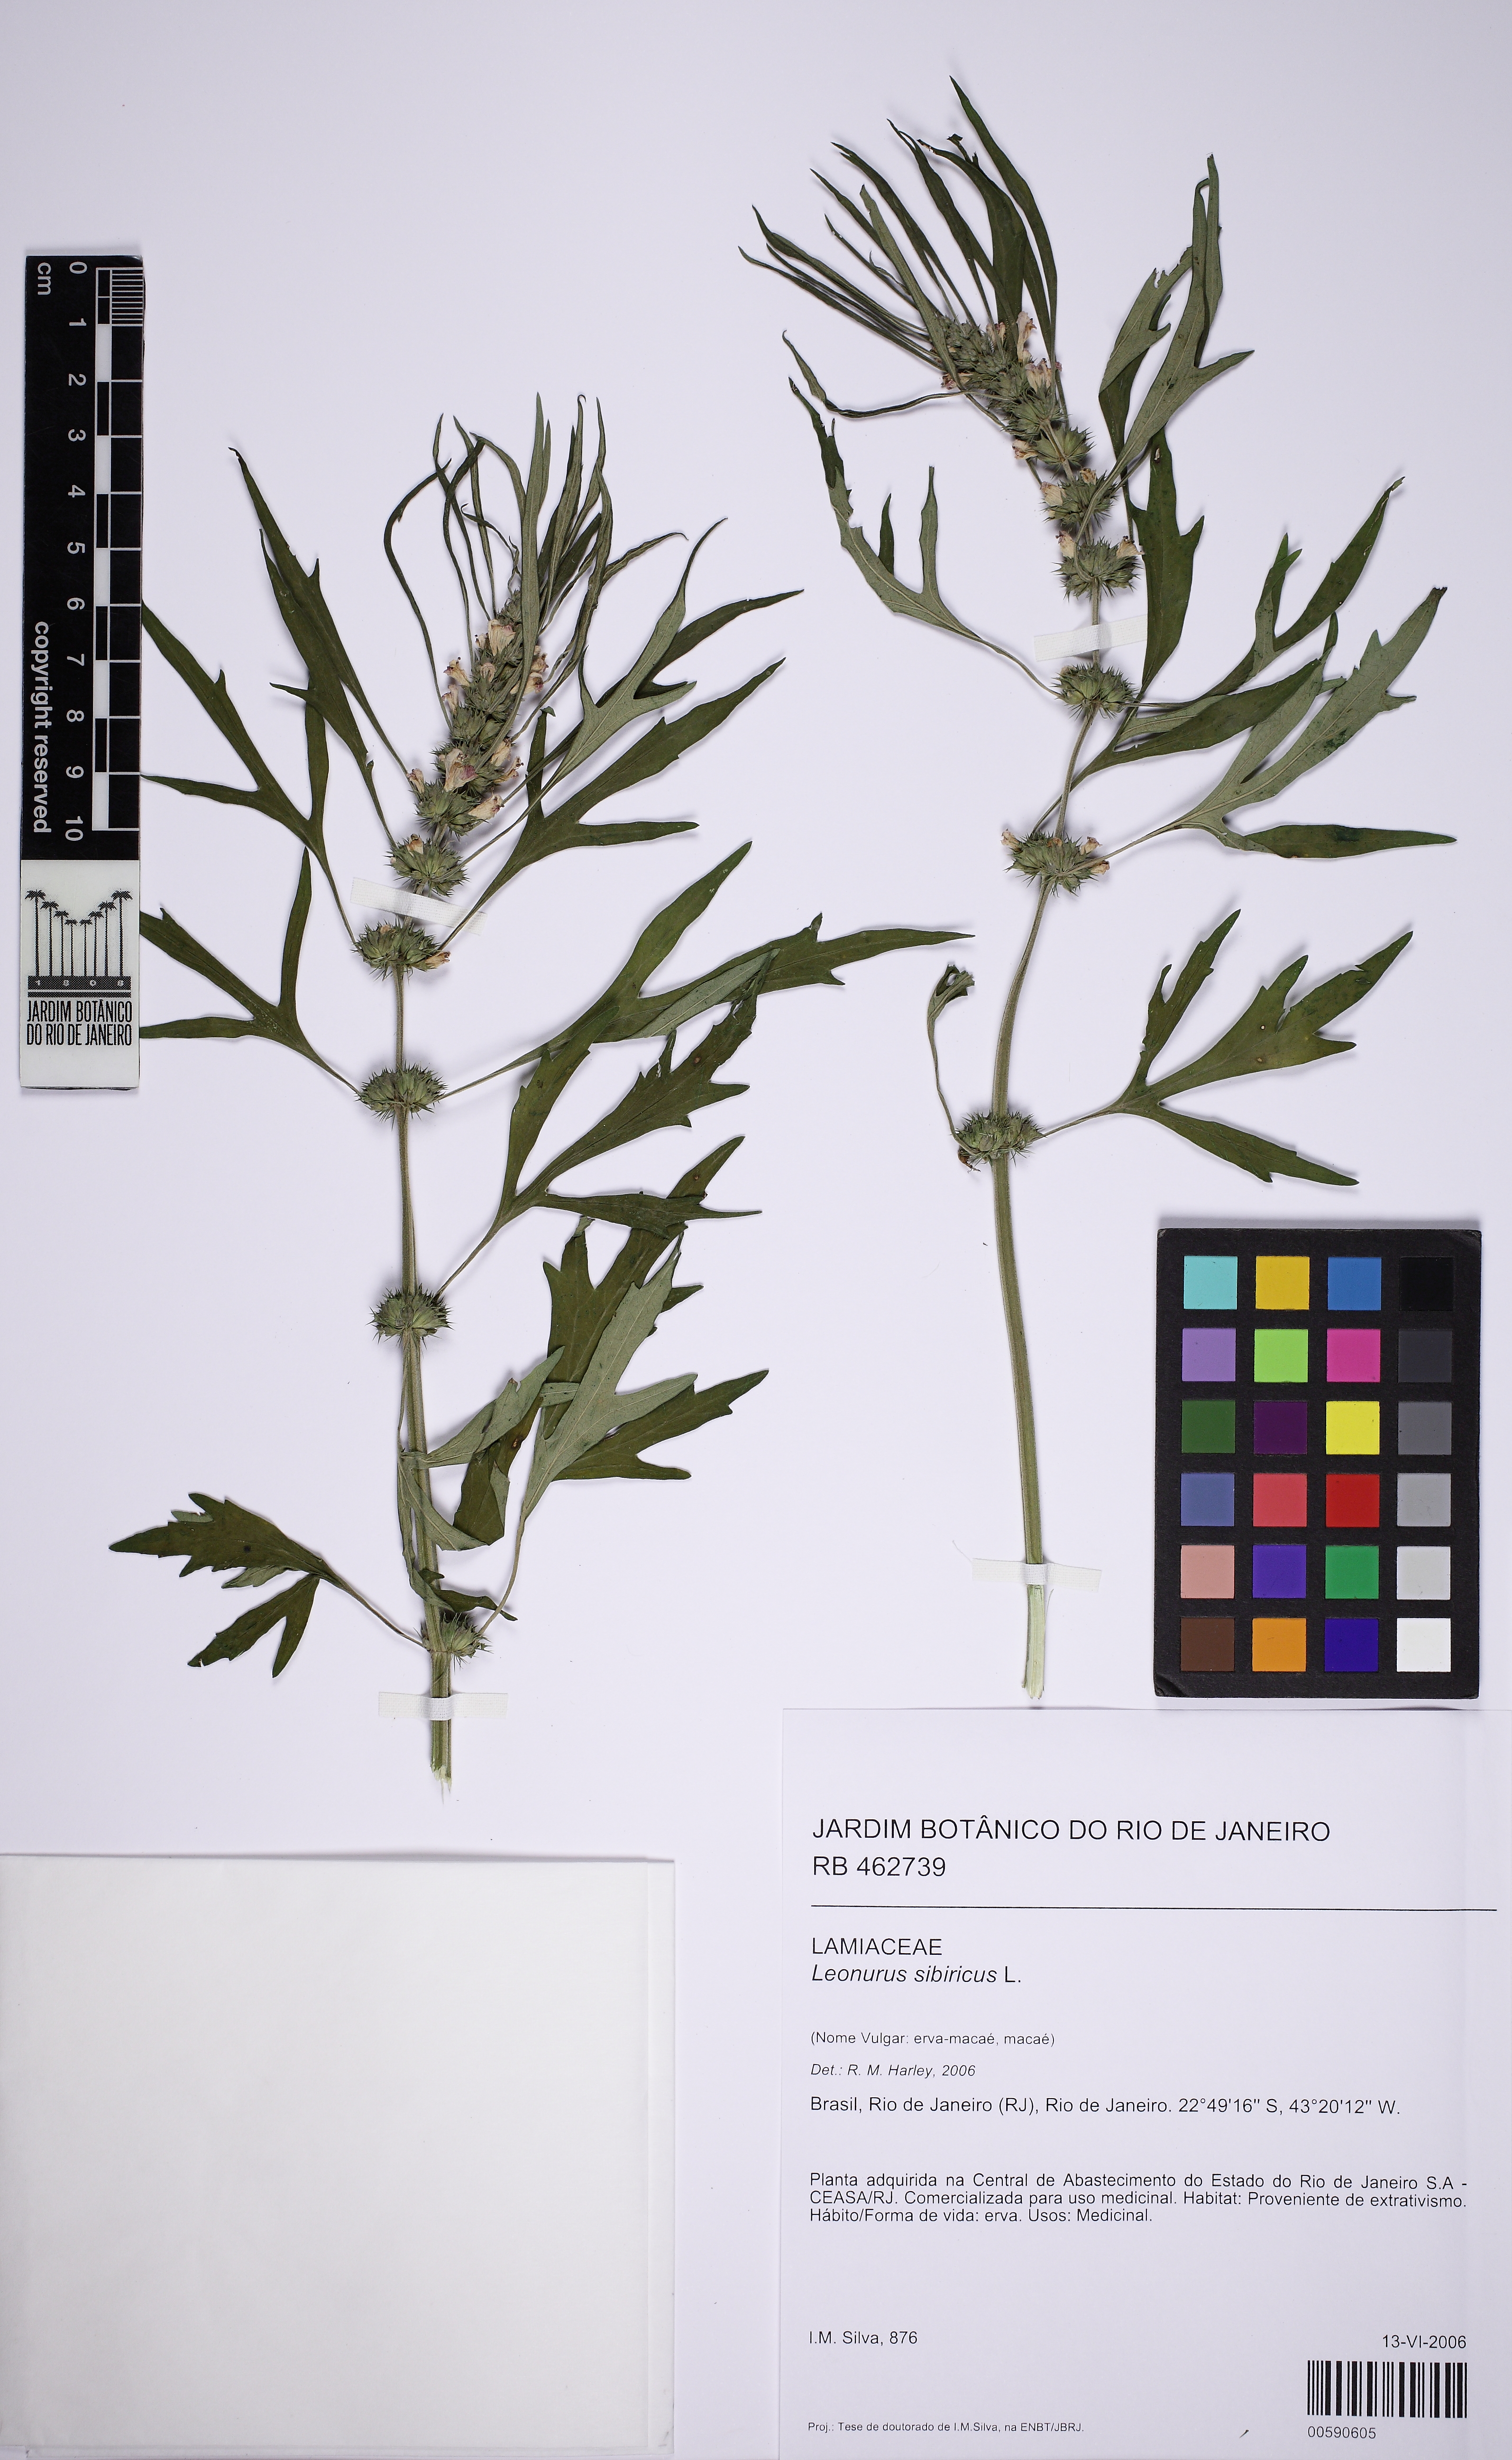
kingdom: Plantae
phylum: Tracheophyta
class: Magnoliopsida
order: Lamiales
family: Lamiaceae
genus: Leonurus
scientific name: Leonurus sibiricus
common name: Honeyweed
